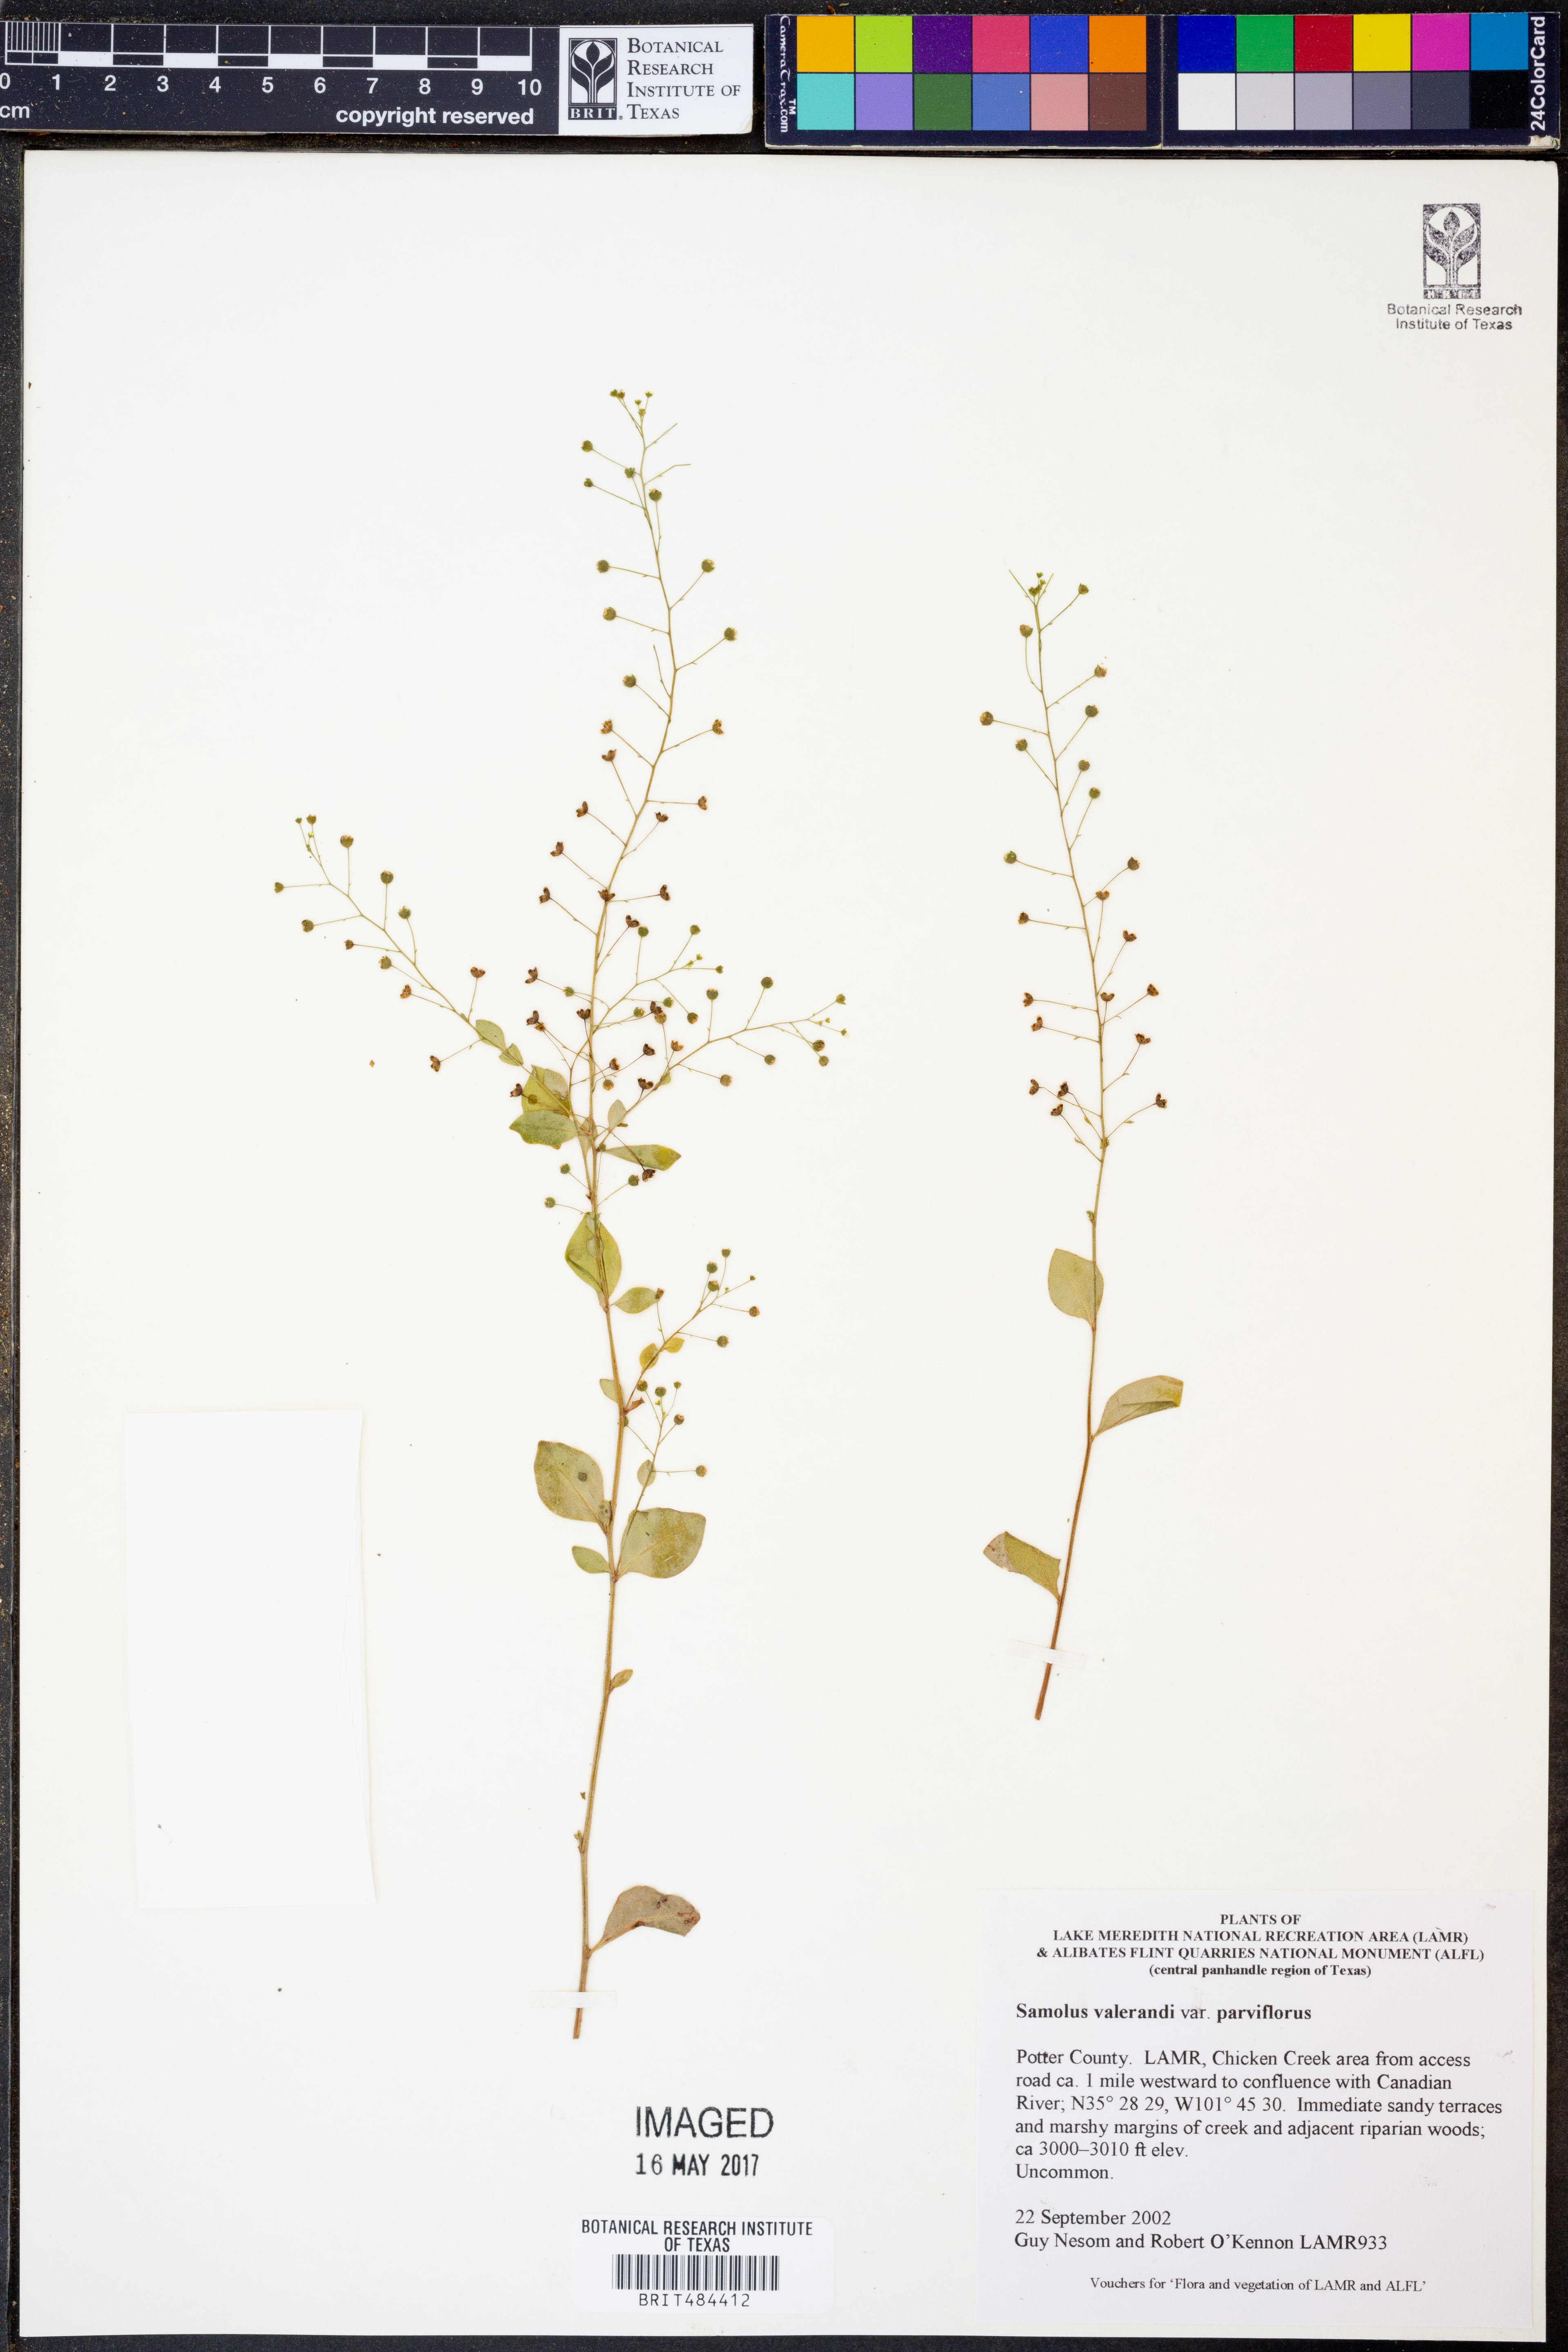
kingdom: Plantae
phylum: Tracheophyta
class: Magnoliopsida
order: Ericales
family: Primulaceae
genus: Samolus
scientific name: Samolus parviflorus
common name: False water pimpernel
